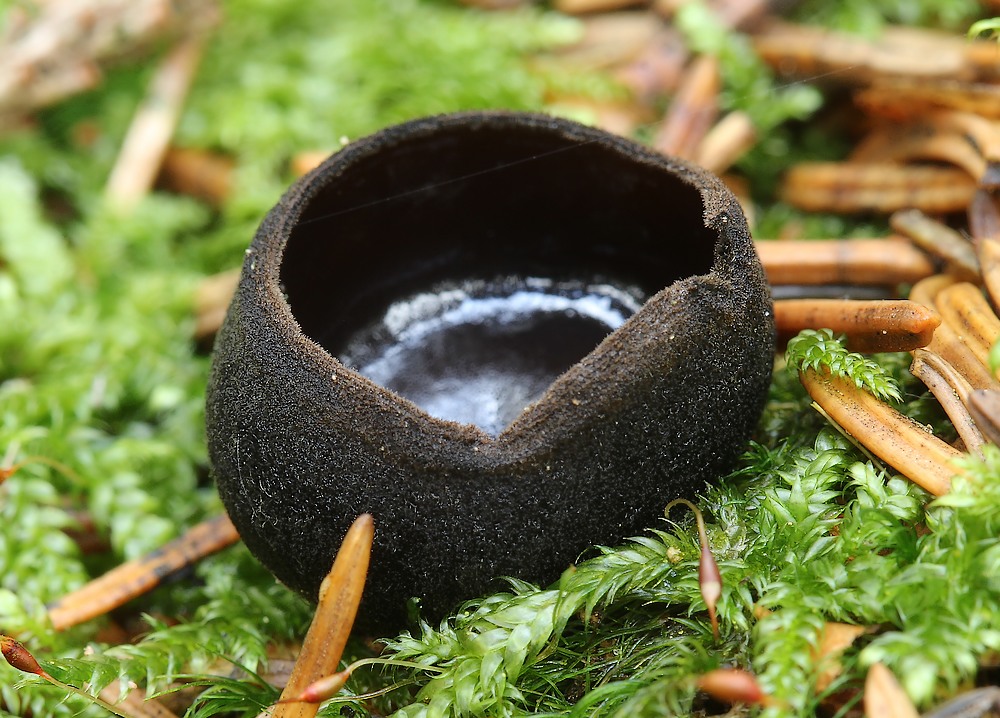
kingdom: Fungi
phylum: Ascomycota
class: Pezizomycetes
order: Pezizales
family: Sarcosomataceae
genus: Pseudoplectania
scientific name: Pseudoplectania nigrella
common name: almindelig sortbæger
